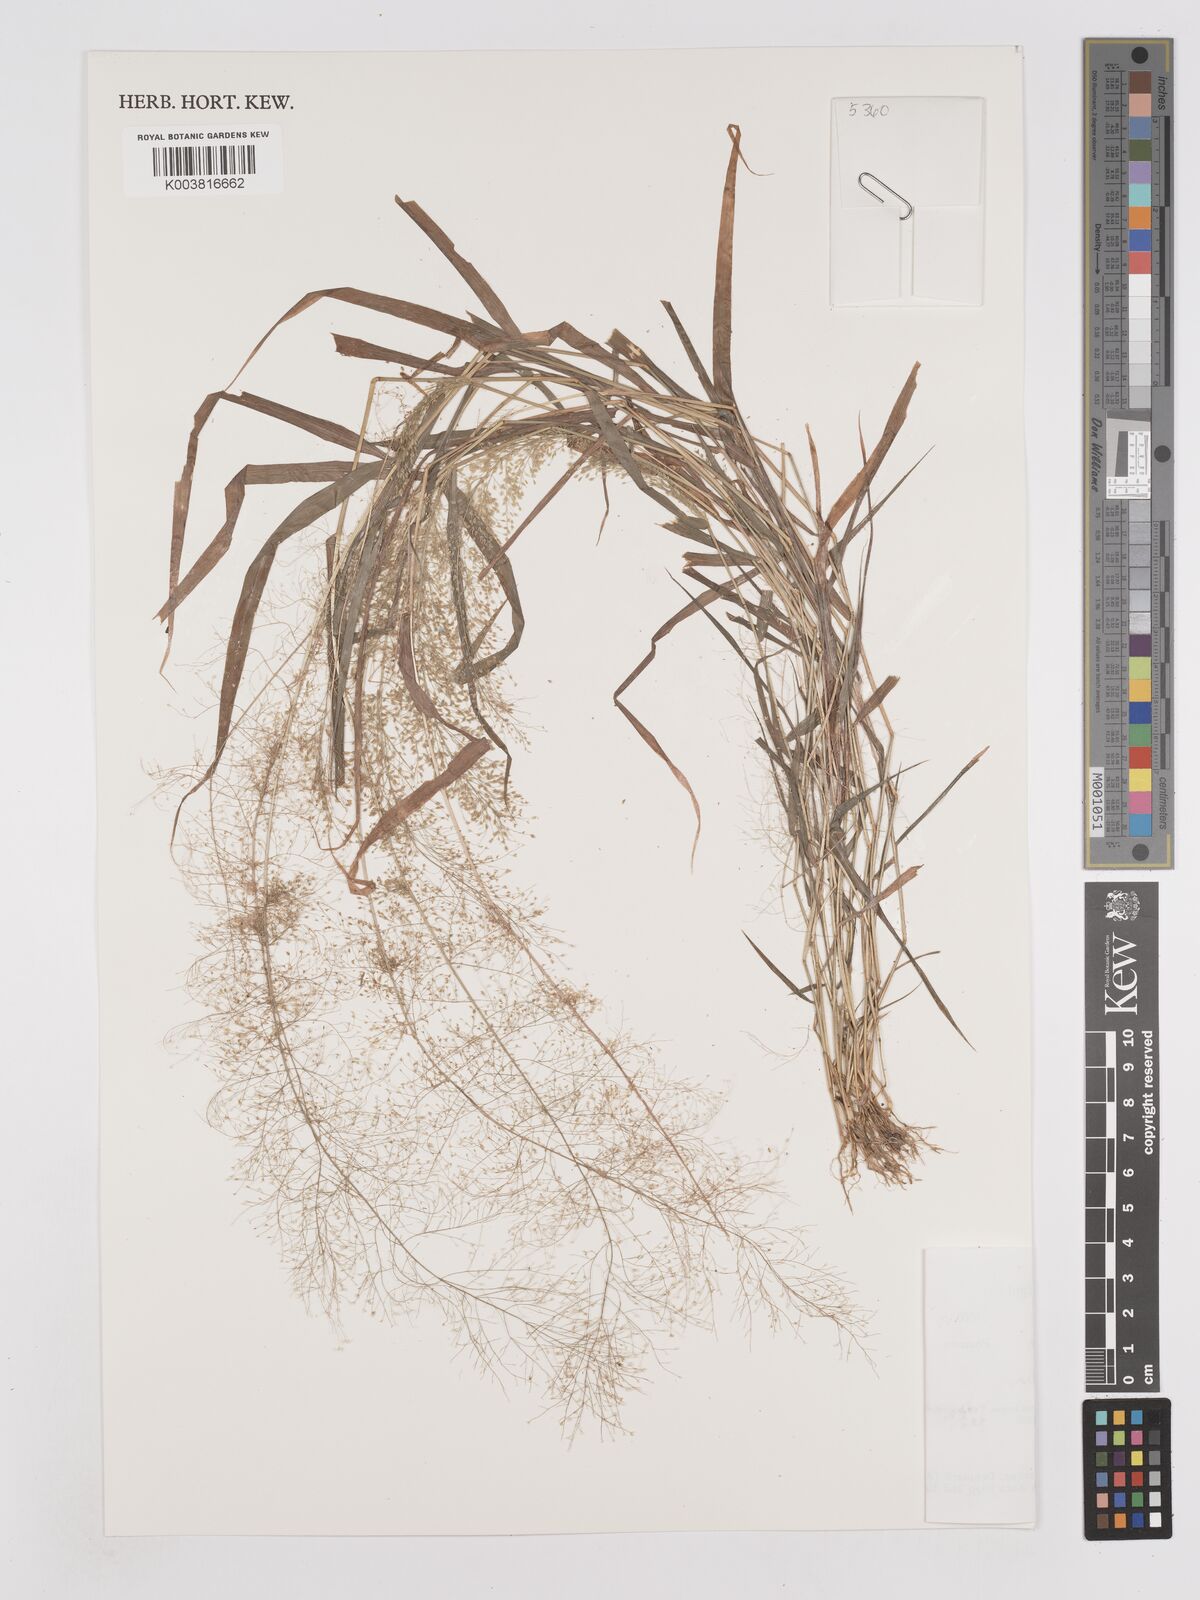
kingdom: Plantae
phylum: Tracheophyta
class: Liliopsida
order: Poales
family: Poaceae
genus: Eragrostis
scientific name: Eragrostis tenella
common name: Japanese lovegrass
